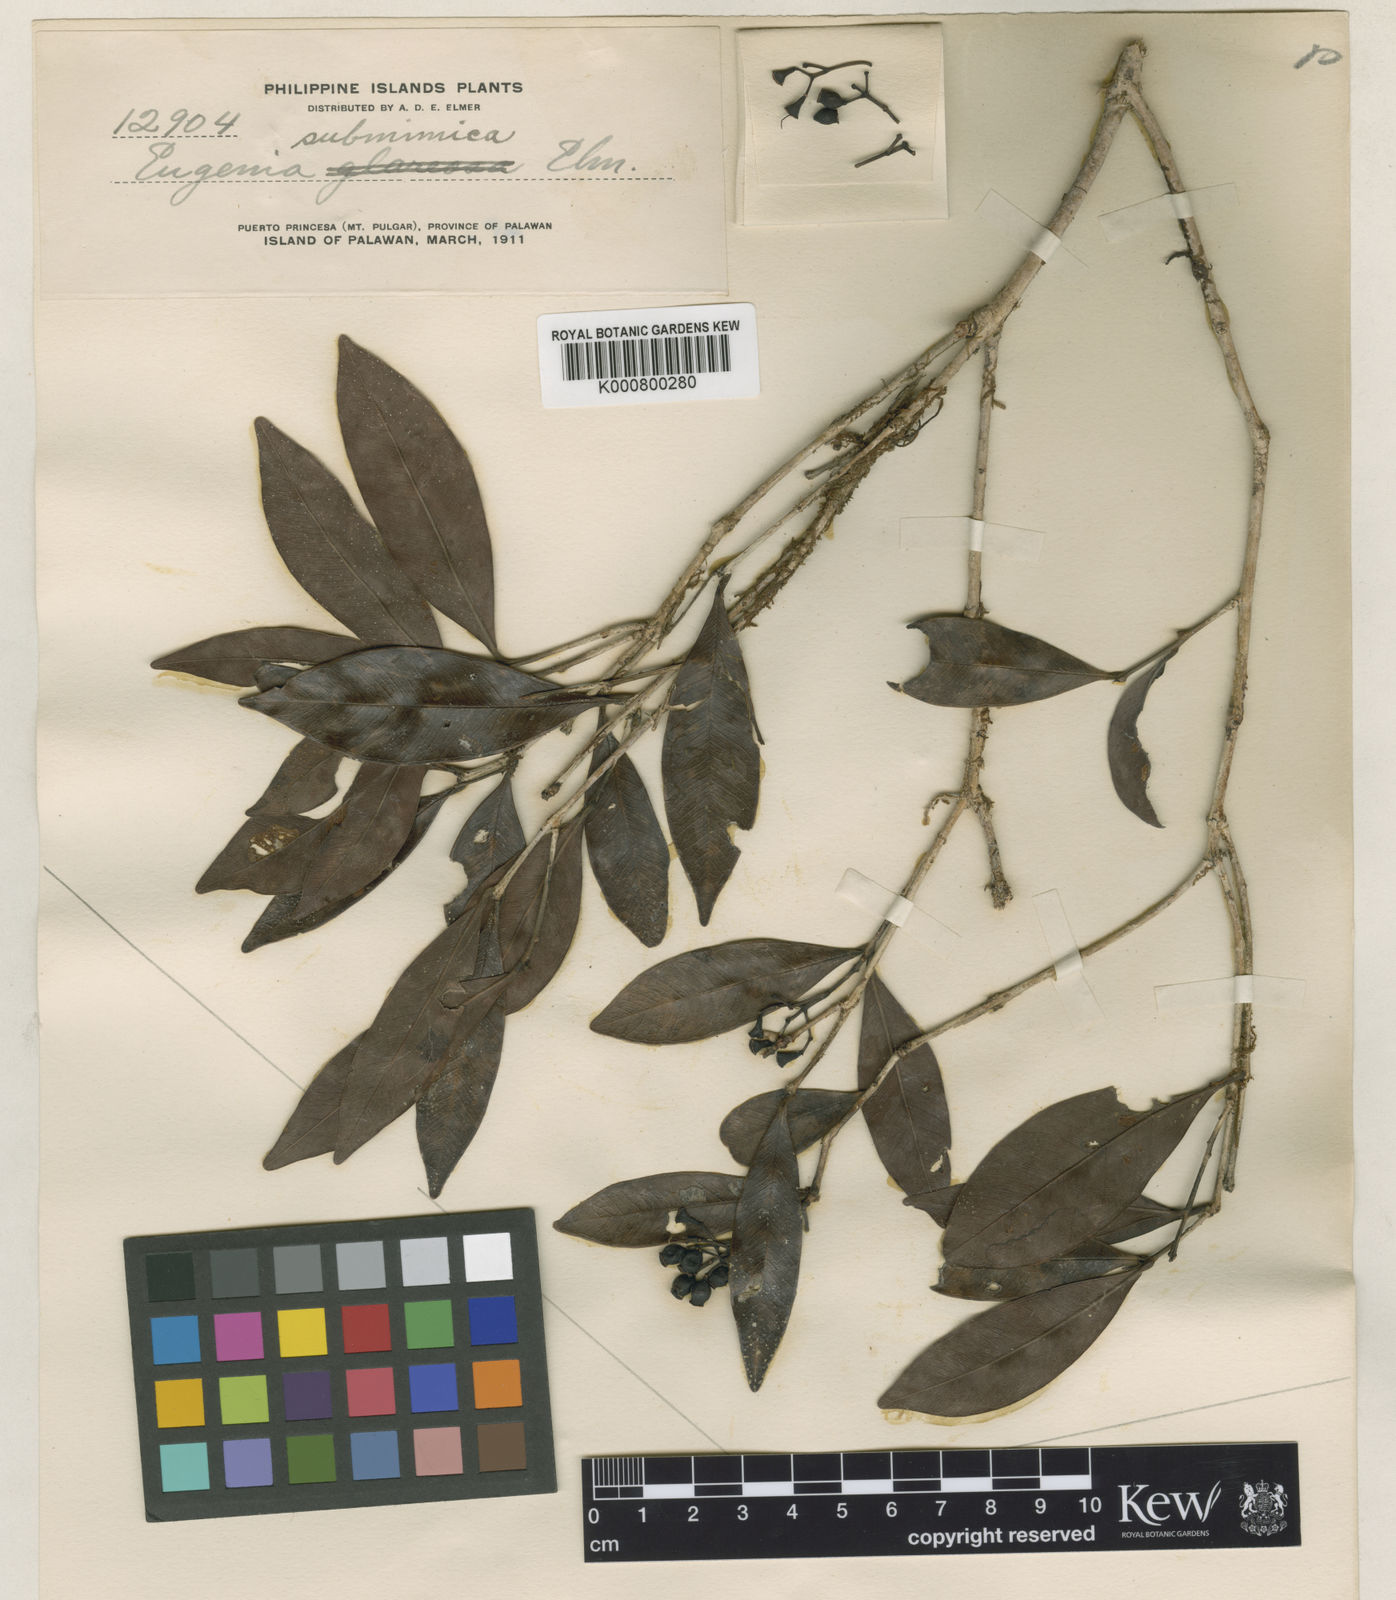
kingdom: Plantae
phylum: Tracheophyta
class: Magnoliopsida
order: Myrtales
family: Myrtaceae
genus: Syzygium
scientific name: Syzygium mimicum
